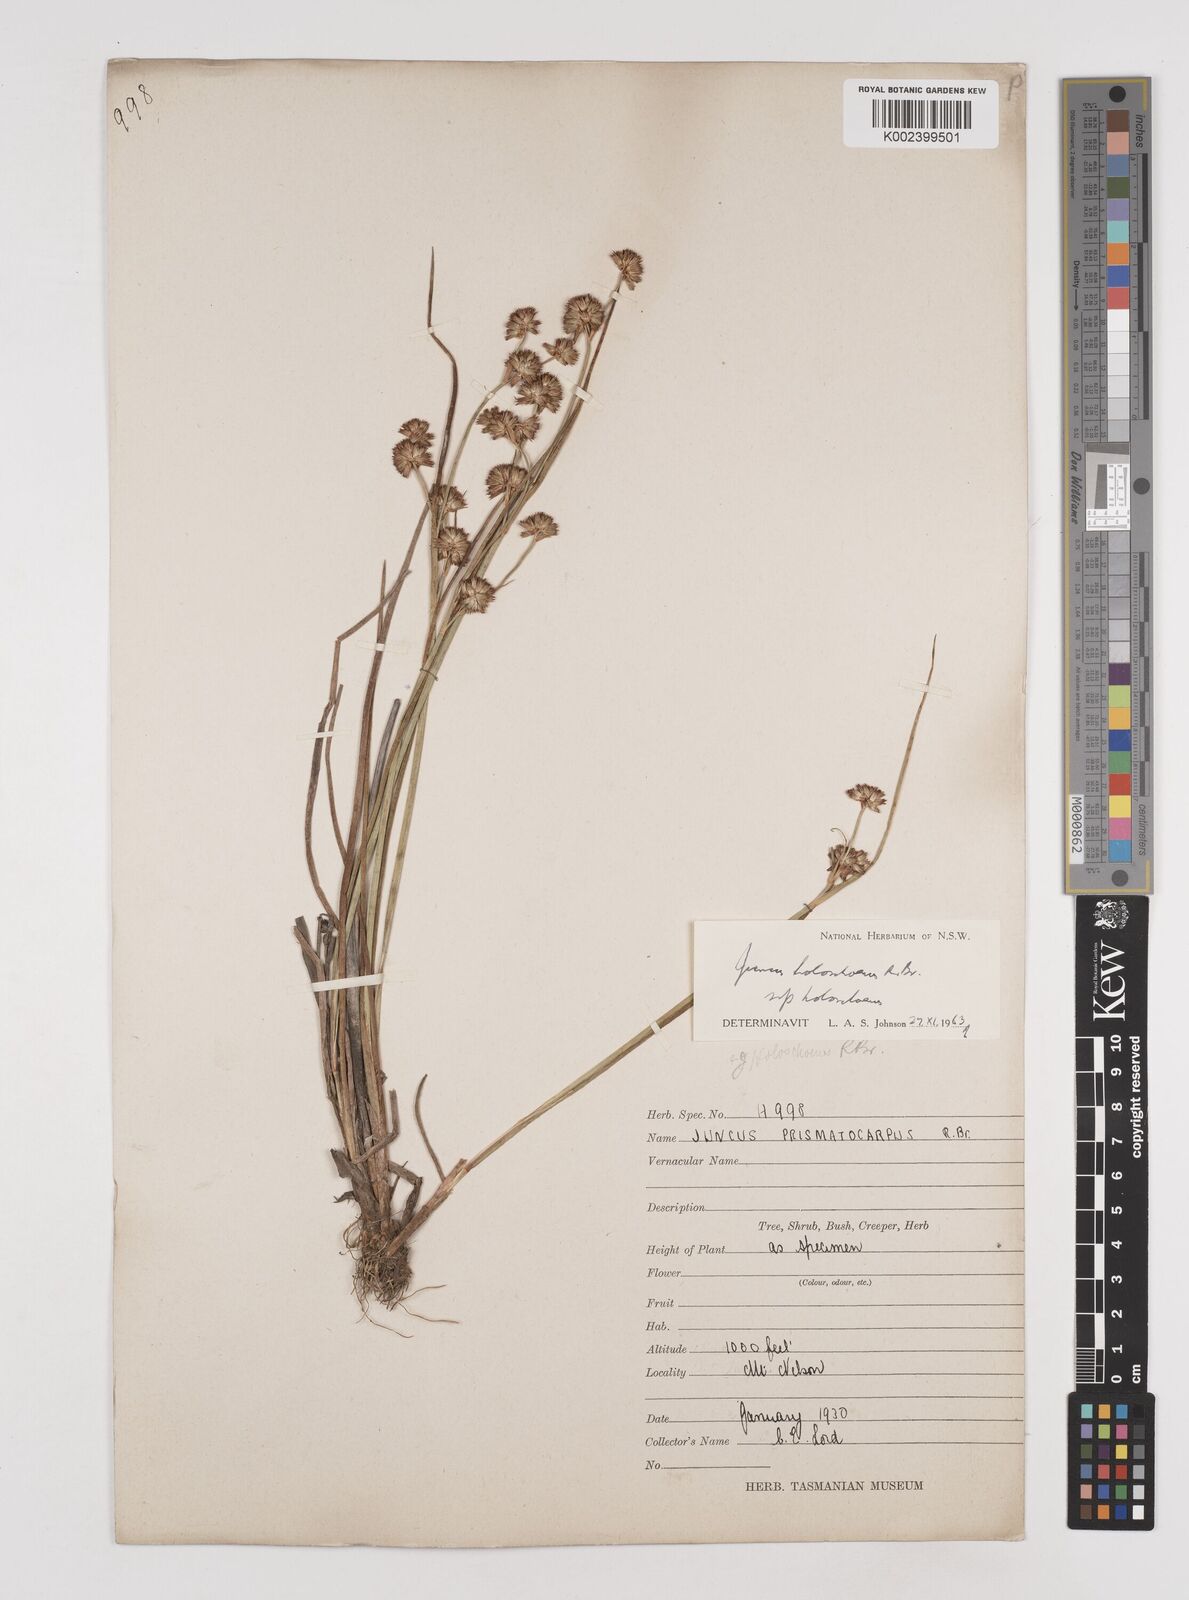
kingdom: Plantae
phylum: Tracheophyta
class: Liliopsida
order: Poales
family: Juncaceae
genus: Juncus
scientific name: Juncus holoschoenus
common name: Joint-leaf rush
